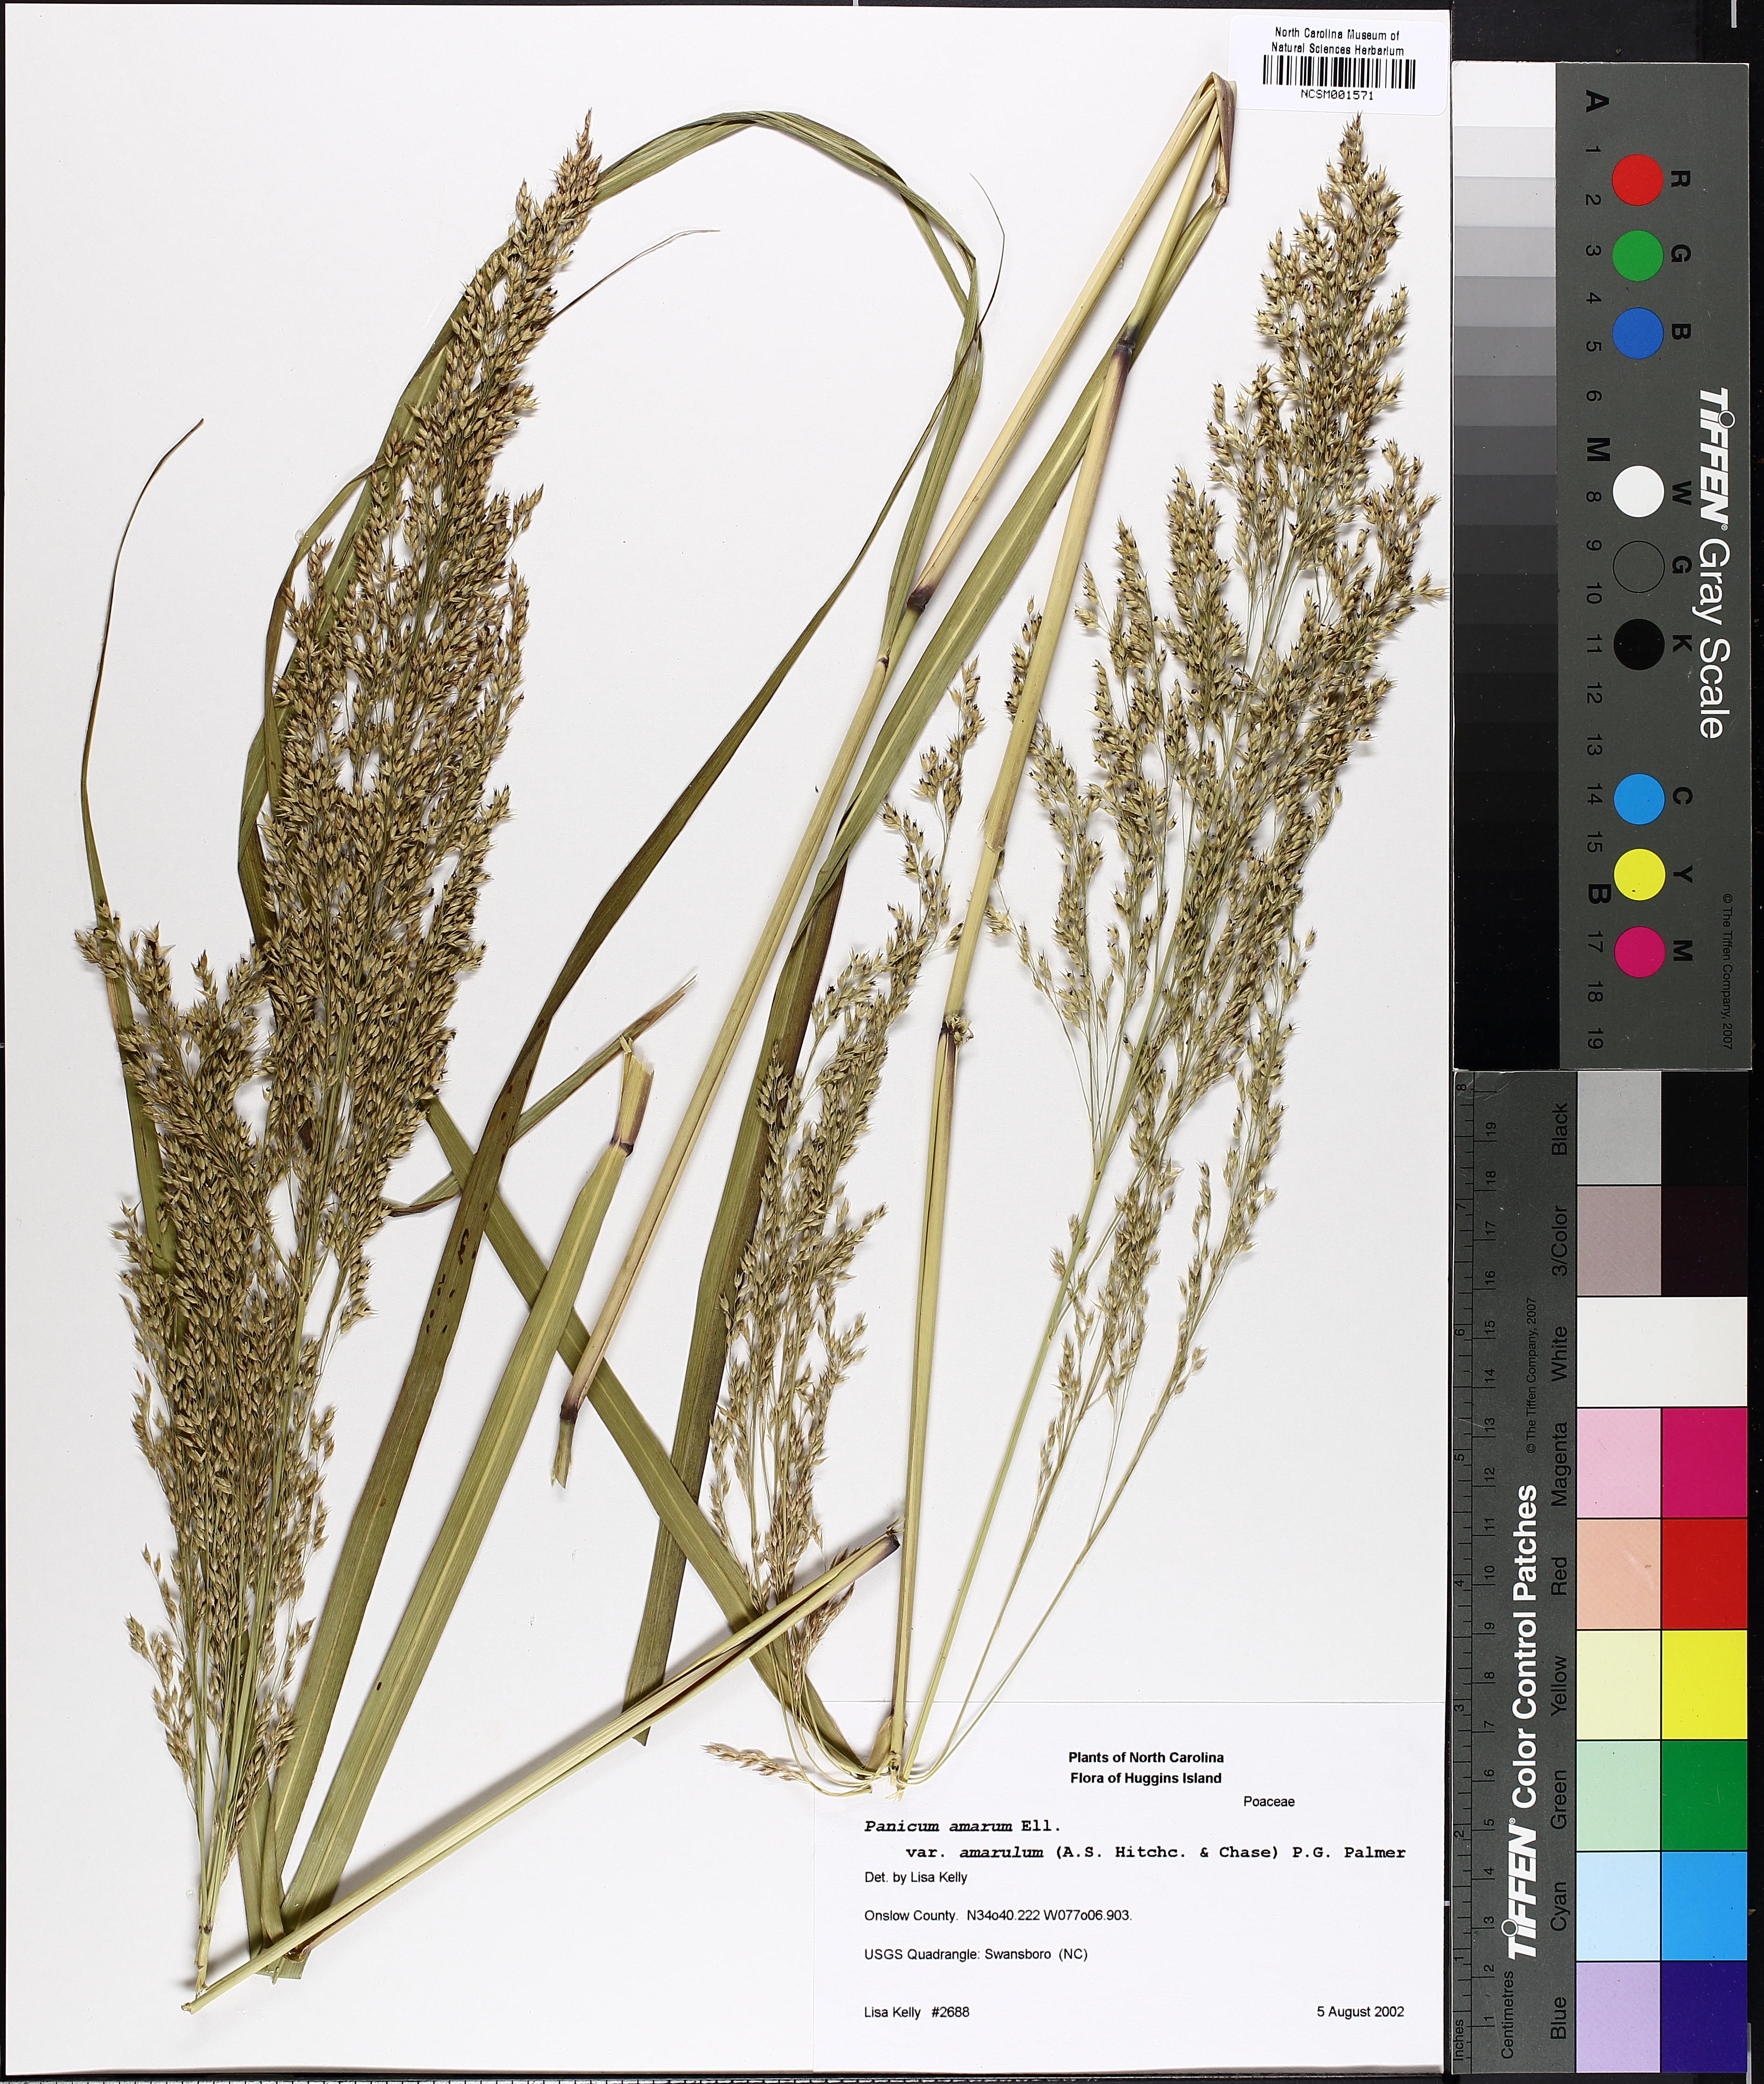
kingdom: Plantae
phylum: Tracheophyta
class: Liliopsida
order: Poales
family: Poaceae
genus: Panicum
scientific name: Panicum amarum
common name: Bitter panicum
